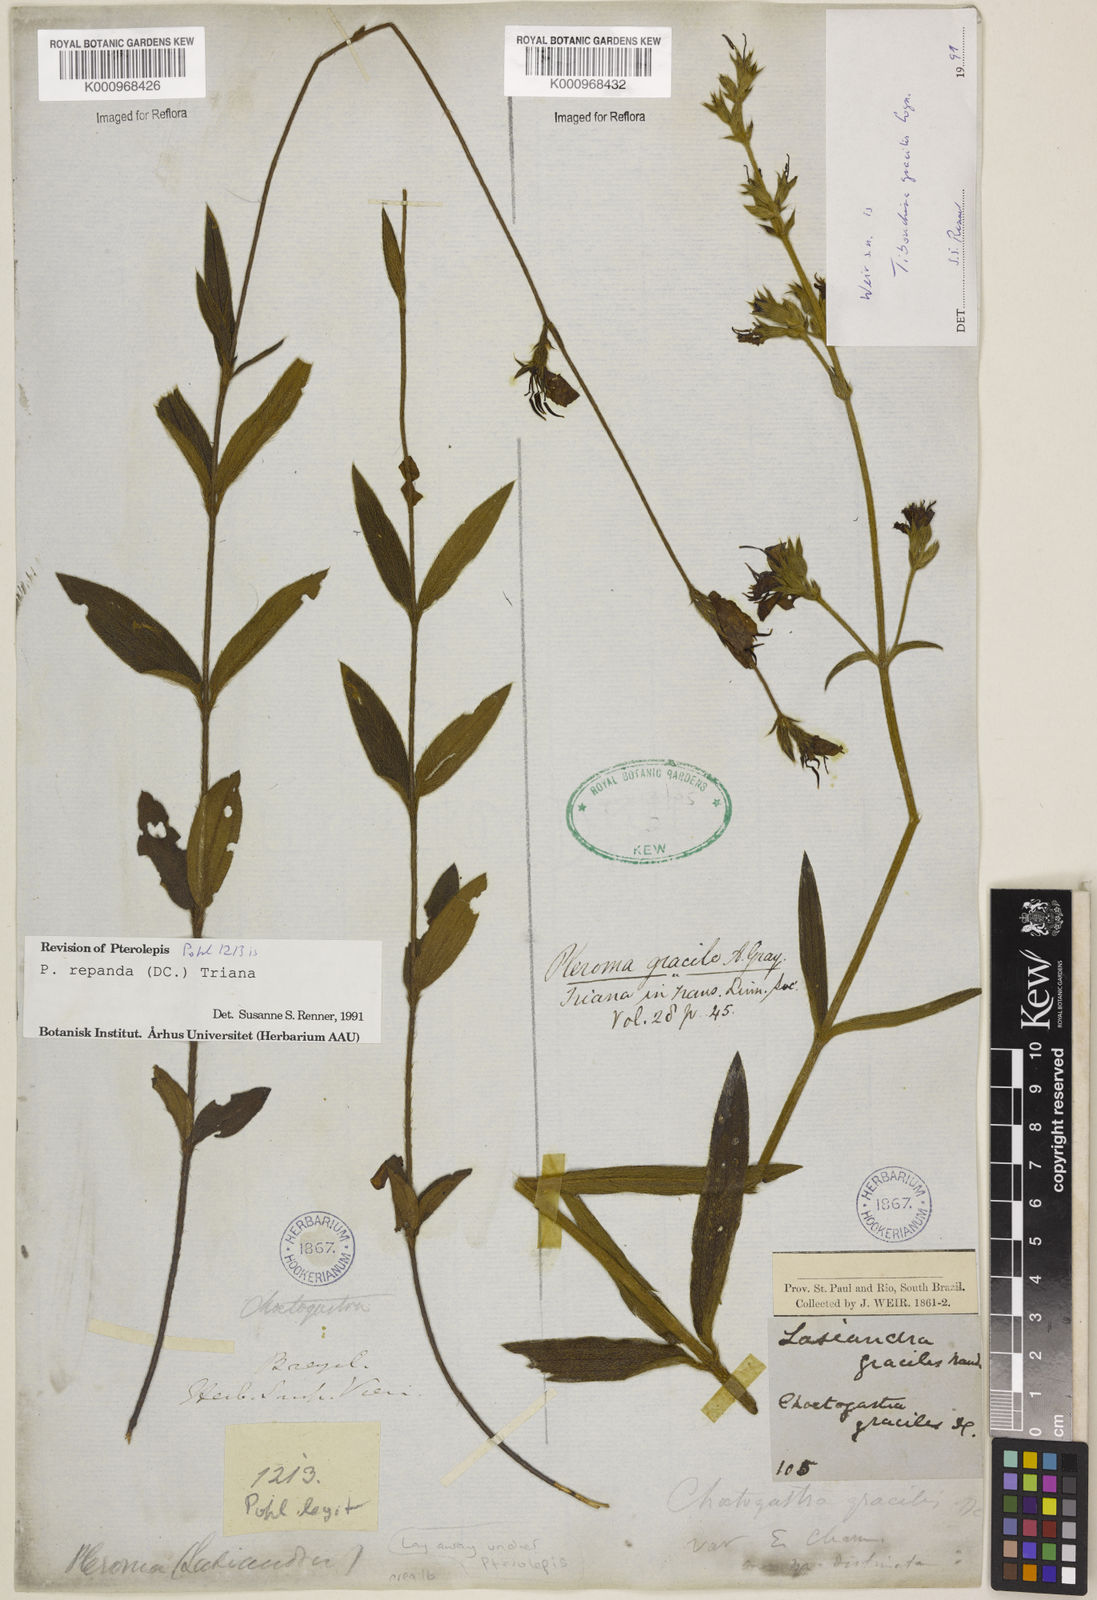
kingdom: Plantae
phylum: Tracheophyta
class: Magnoliopsida
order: Myrtales
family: Melastomataceae
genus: Pterolepis
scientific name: Pterolepis repanda
